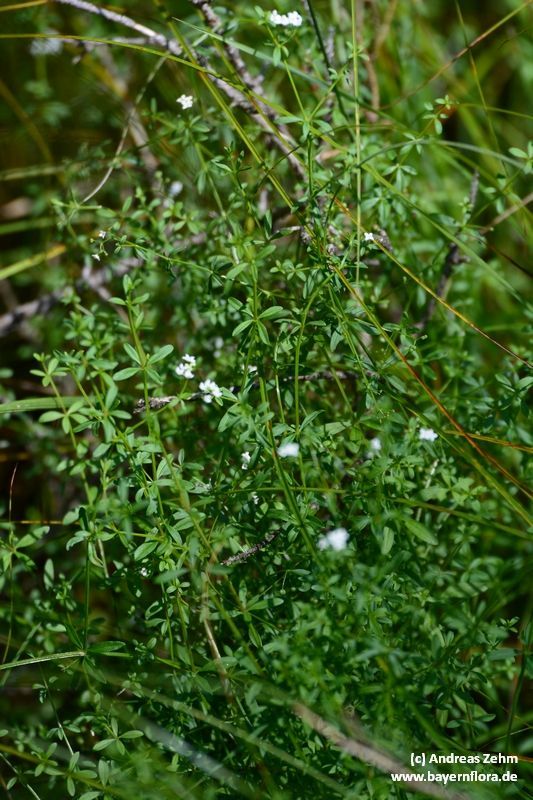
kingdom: Plantae
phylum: Tracheophyta
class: Magnoliopsida
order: Gentianales
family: Rubiaceae
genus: Galium
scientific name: Galium palustre
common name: Common marsh-bedstraw
